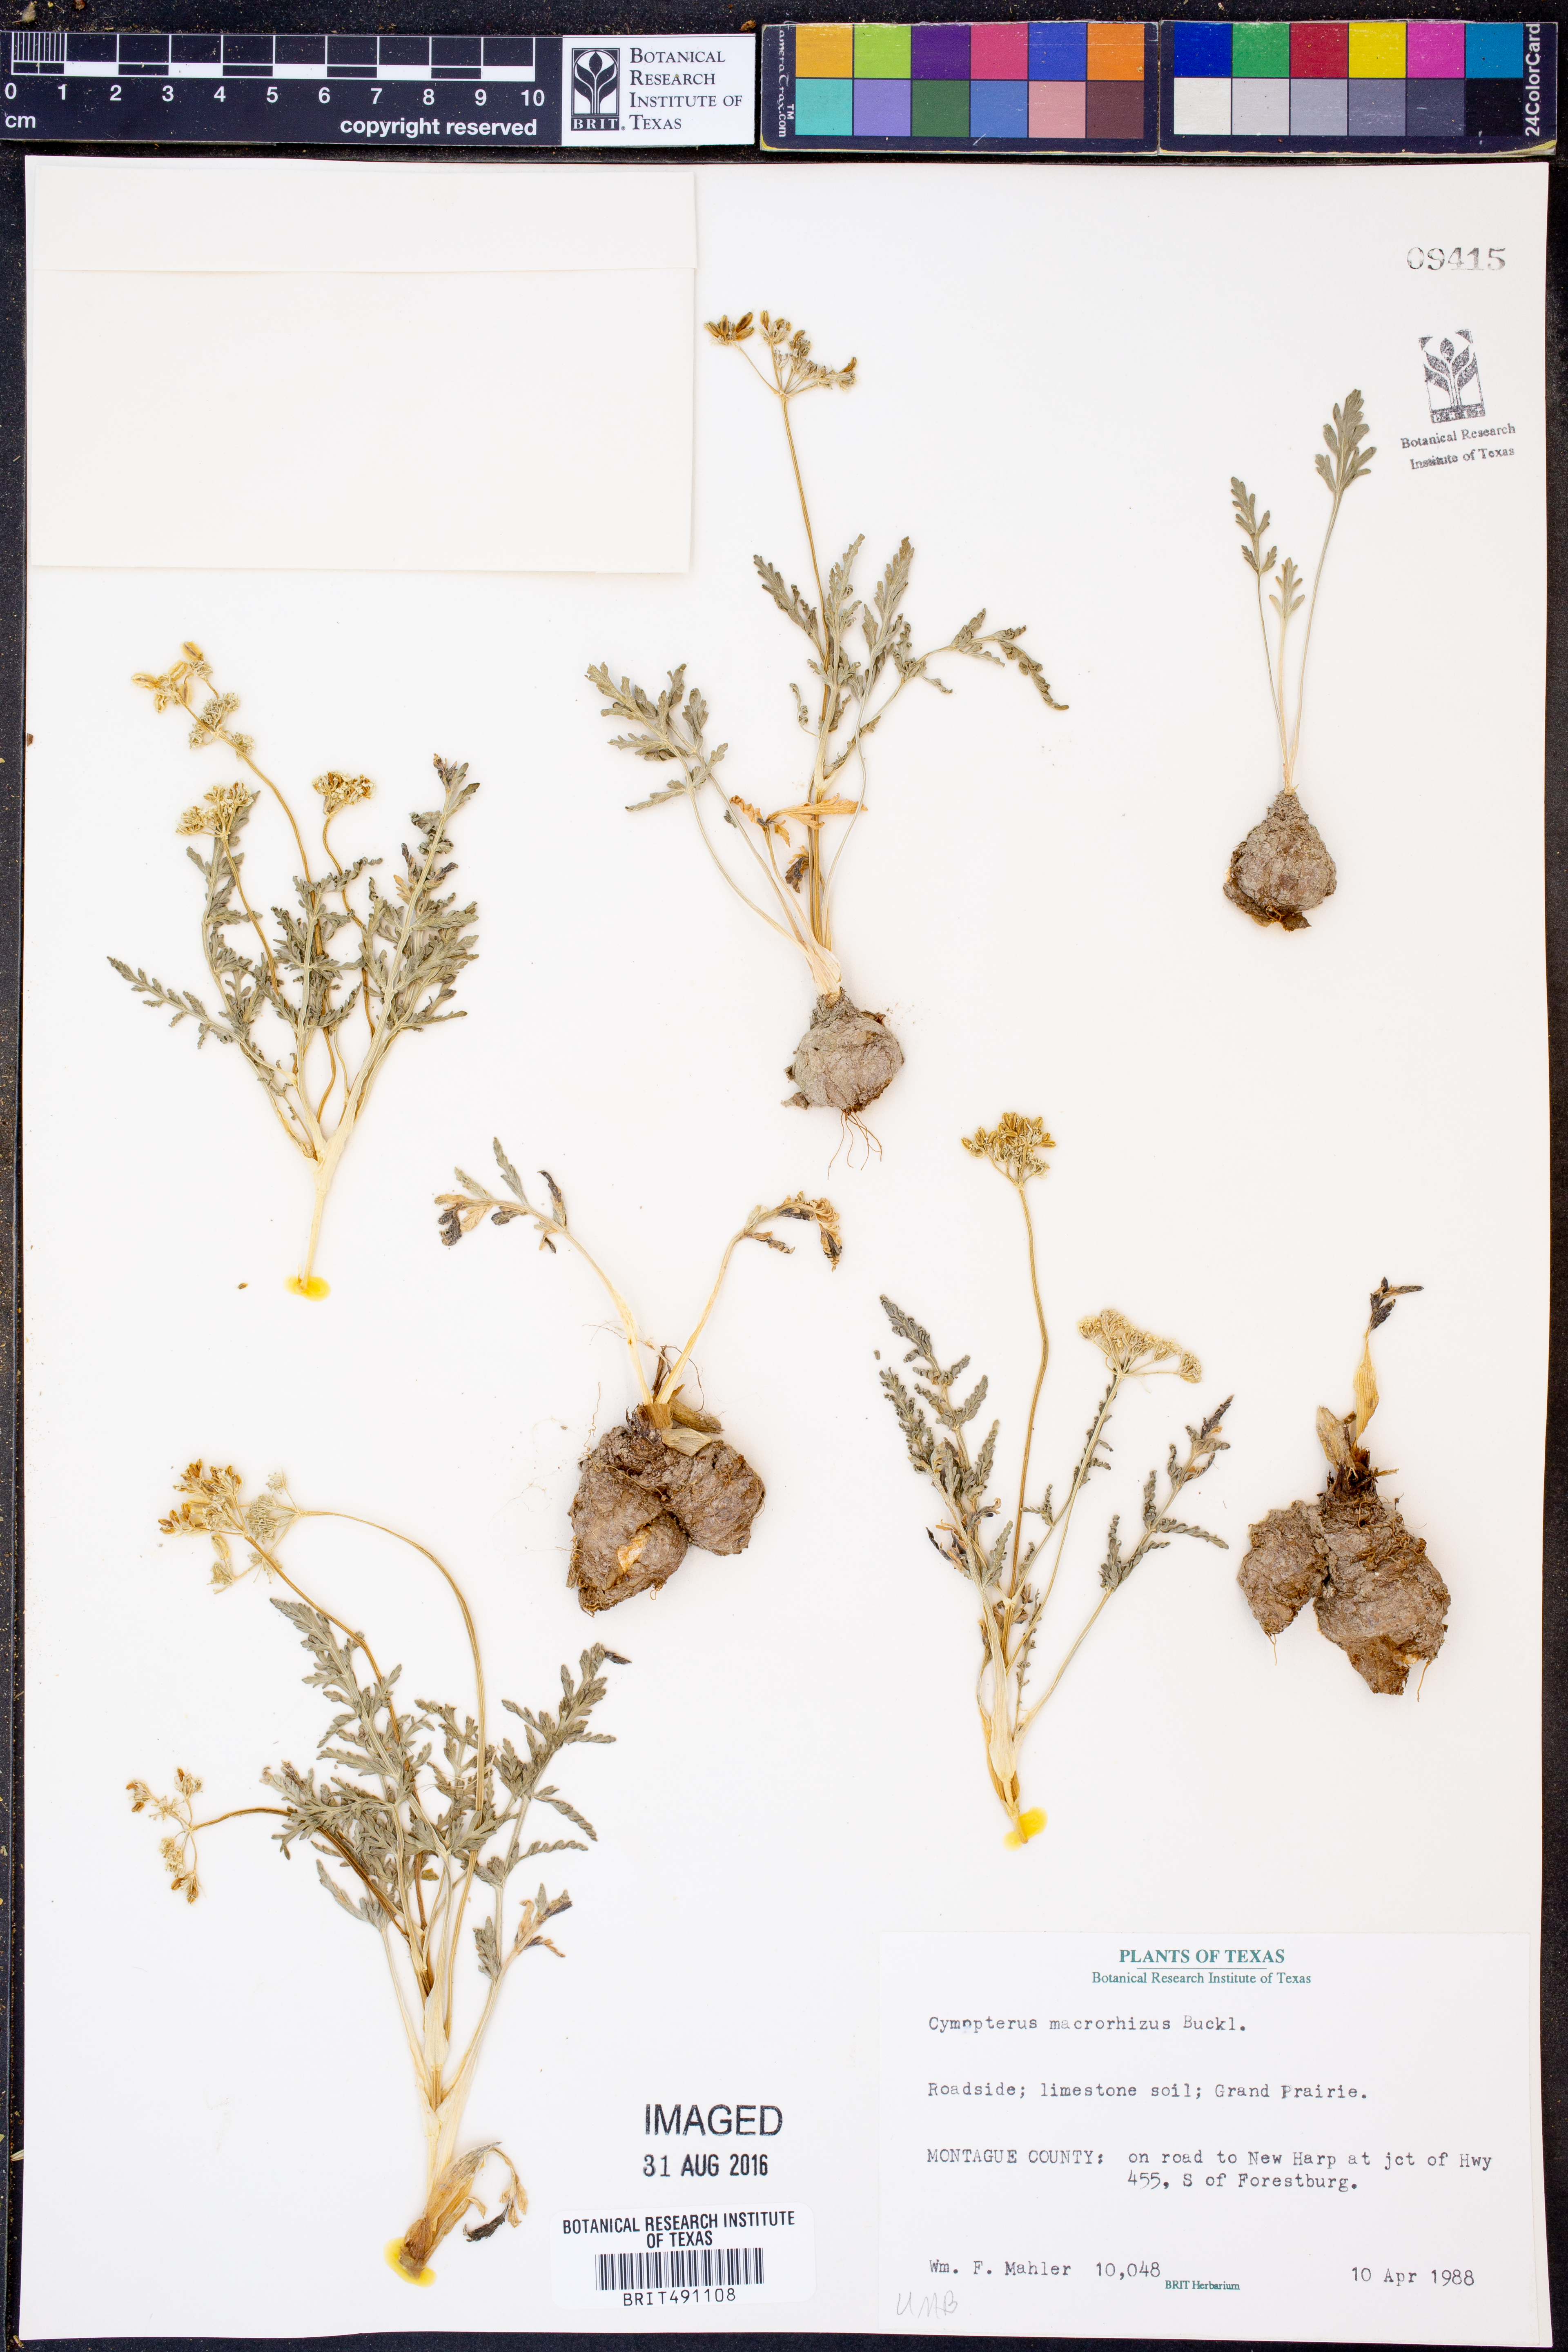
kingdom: Plantae
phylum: Tracheophyta
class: Magnoliopsida
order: Apiales
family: Apiaceae
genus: Vesper
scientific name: Vesper macrorhizus
